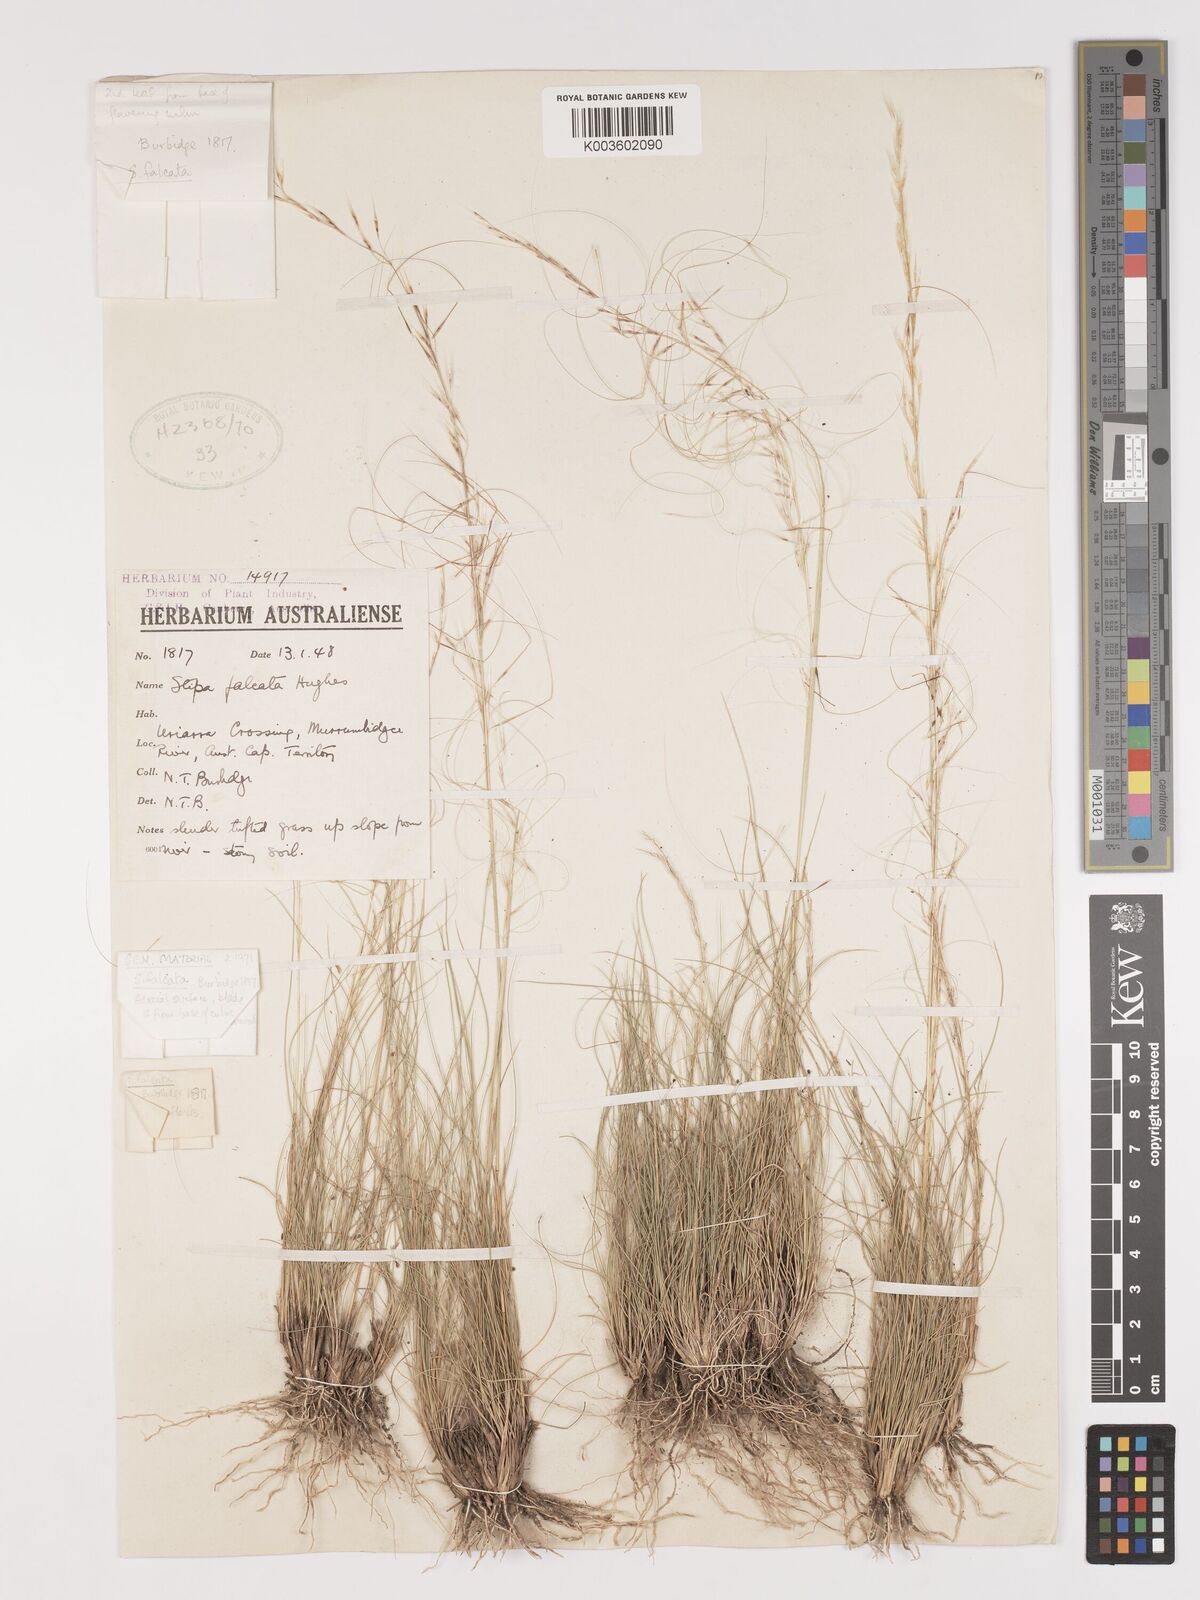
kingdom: Plantae
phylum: Tracheophyta
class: Liliopsida
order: Poales
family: Poaceae
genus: Austrostipa
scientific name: Austrostipa scabra
